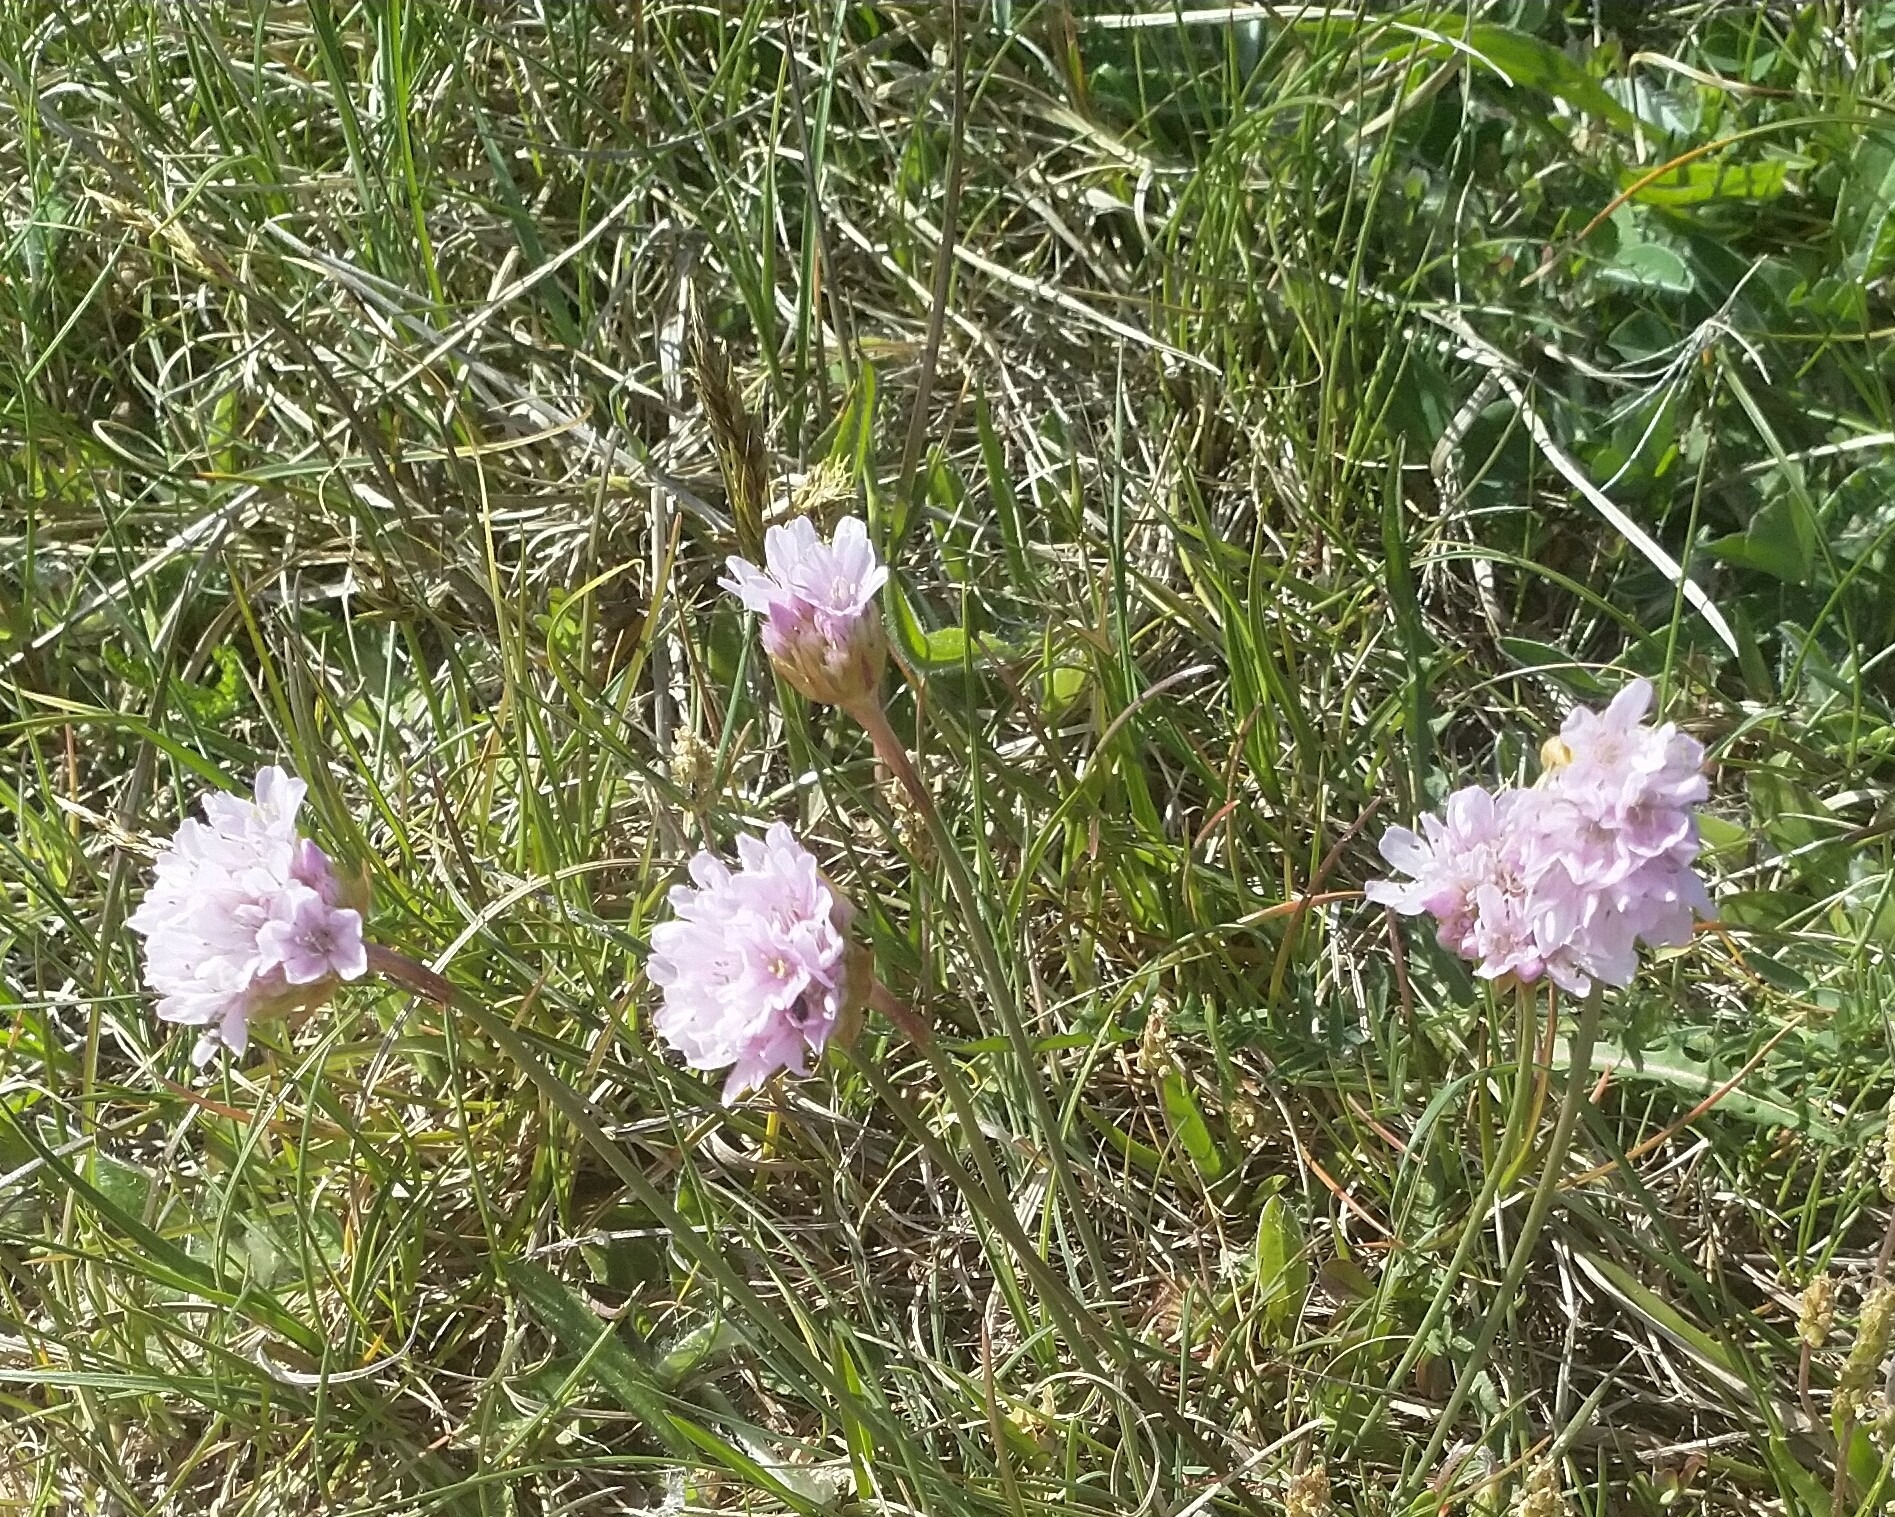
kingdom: Plantae
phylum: Tracheophyta
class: Magnoliopsida
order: Caryophyllales
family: Plumbaginaceae
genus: Armeria
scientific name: Armeria maritima
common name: Engelskgræs
